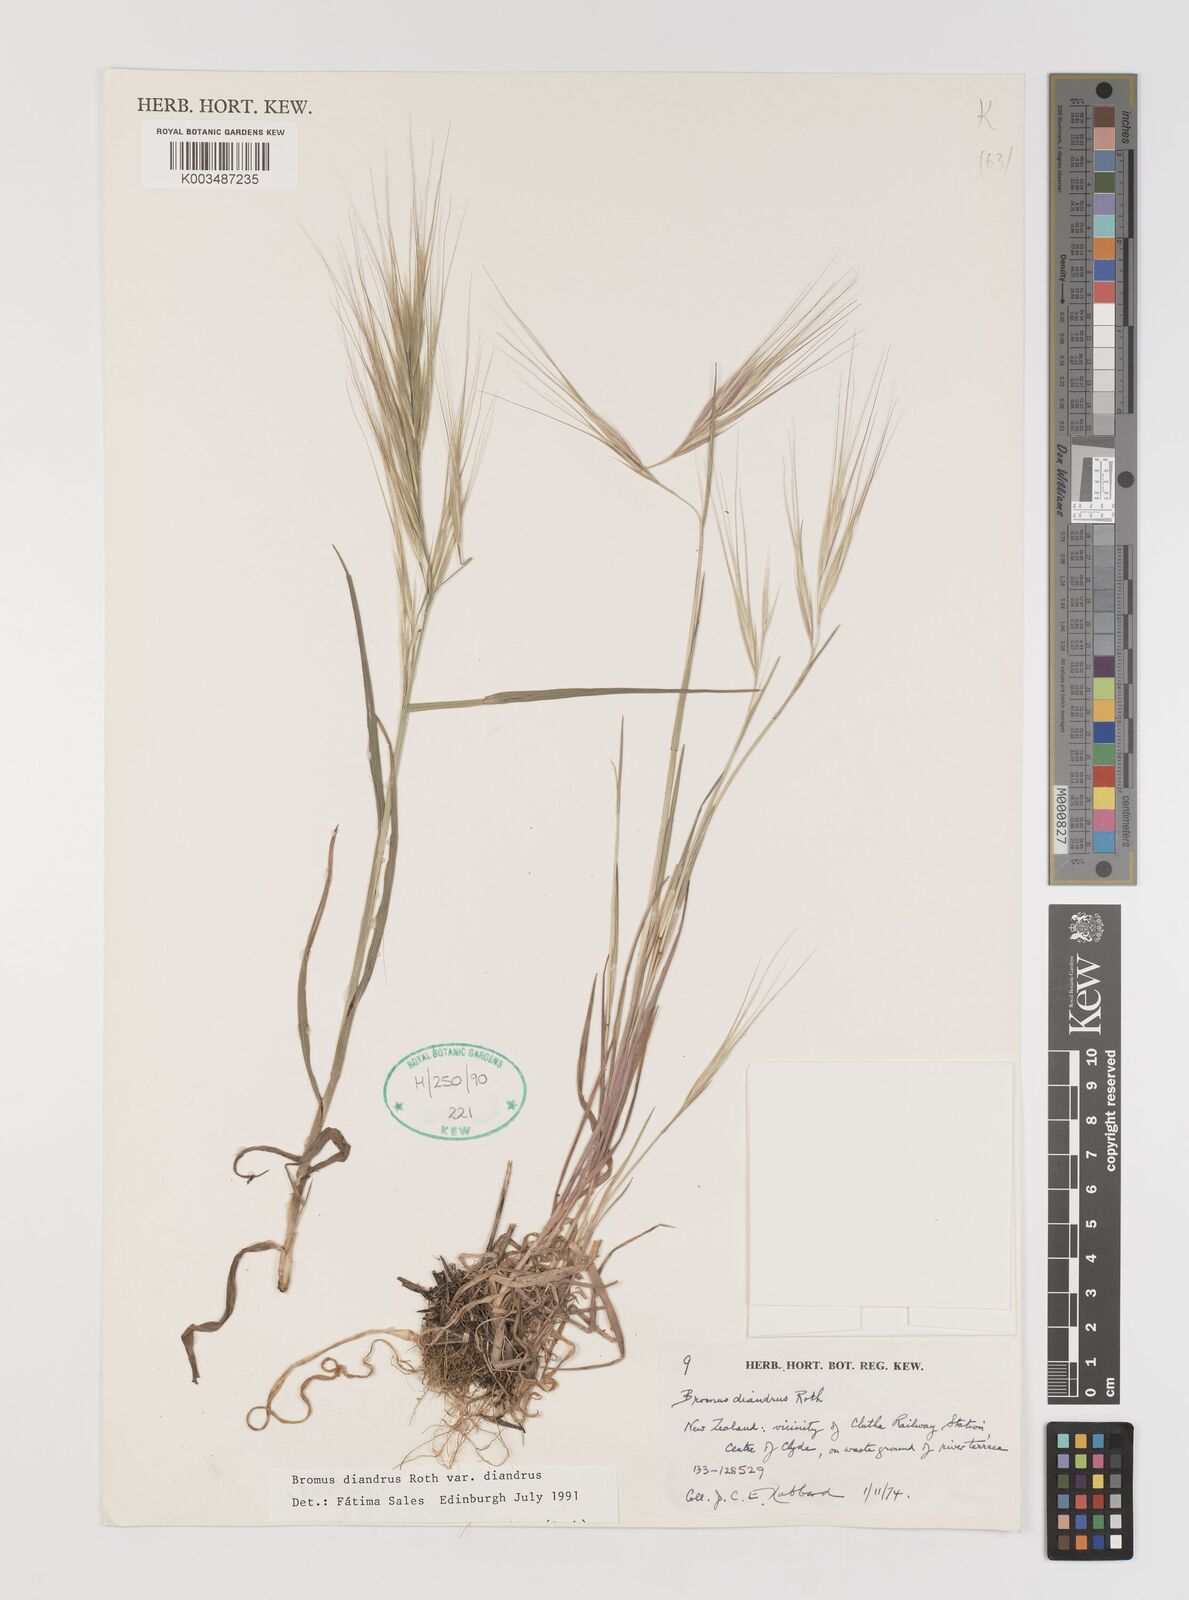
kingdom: Plantae
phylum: Tracheophyta
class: Liliopsida
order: Poales
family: Poaceae
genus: Bromus
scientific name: Bromus diandrus
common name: Ripgut brome
